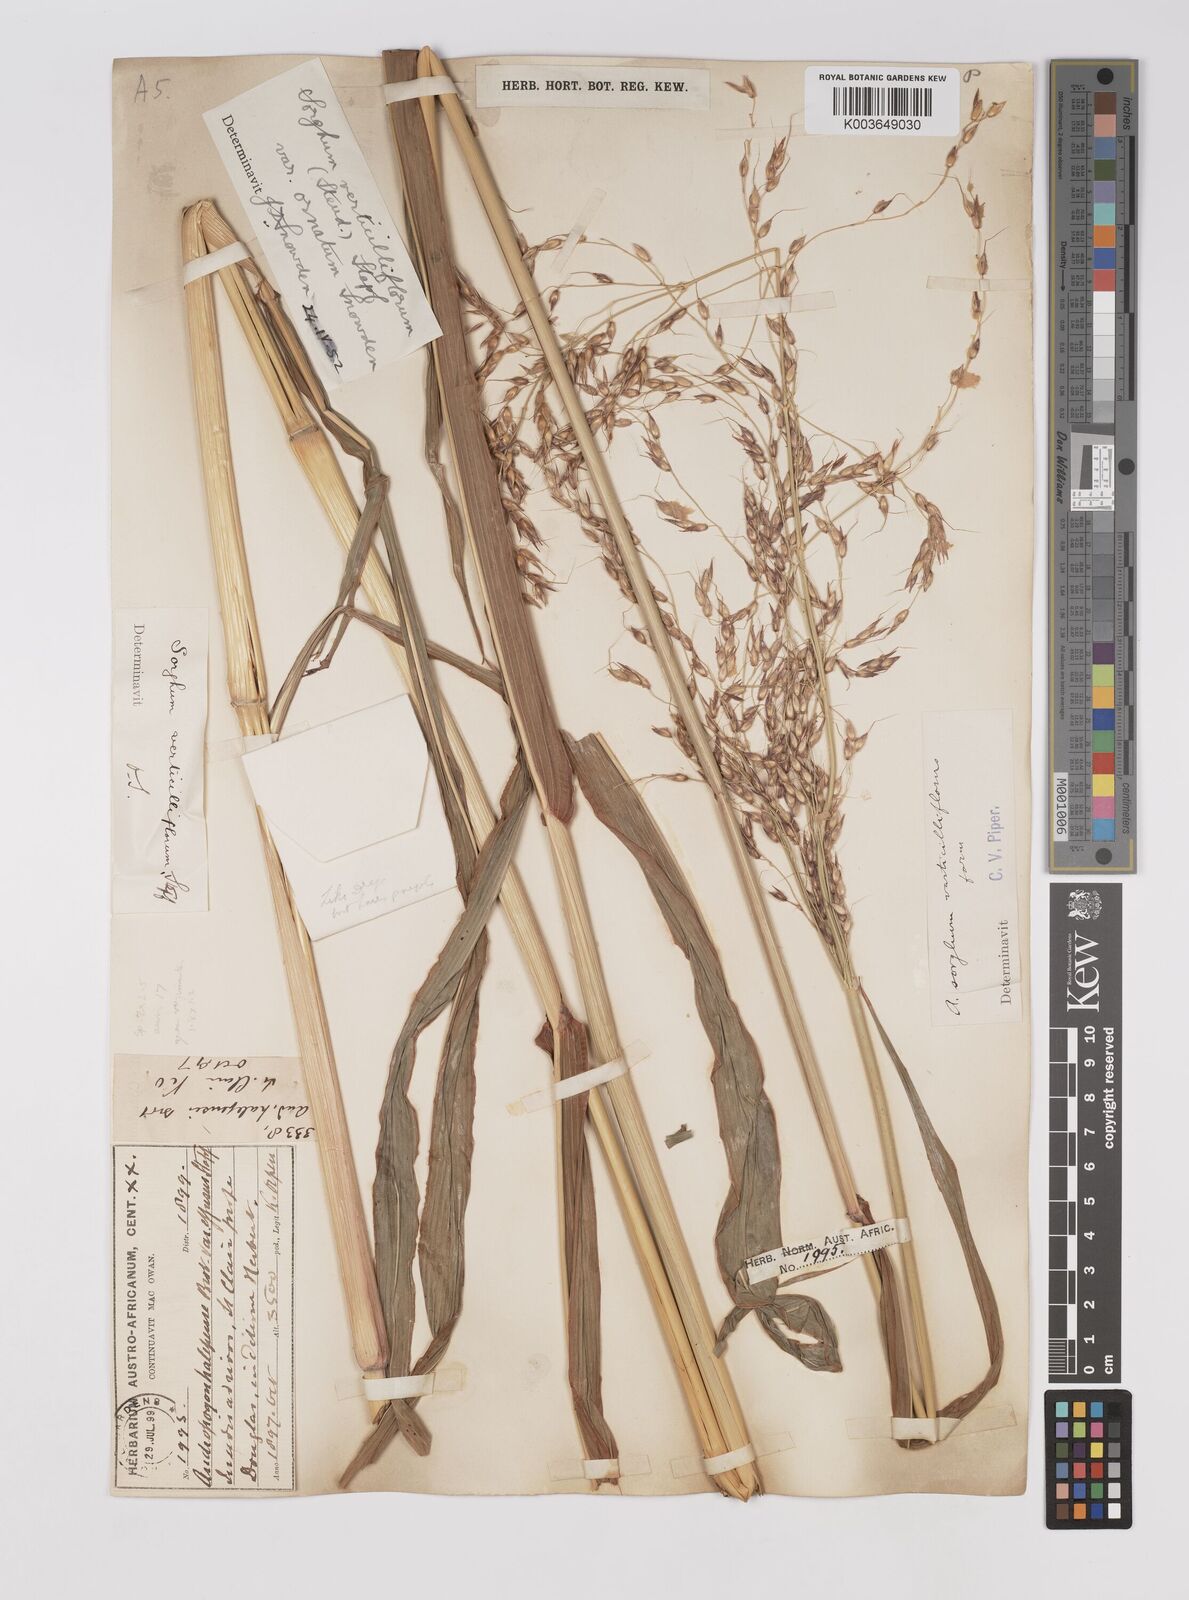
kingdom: Plantae
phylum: Tracheophyta
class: Liliopsida
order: Poales
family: Poaceae
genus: Sorghum
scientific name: Sorghum arundinaceum
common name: Sorghum
